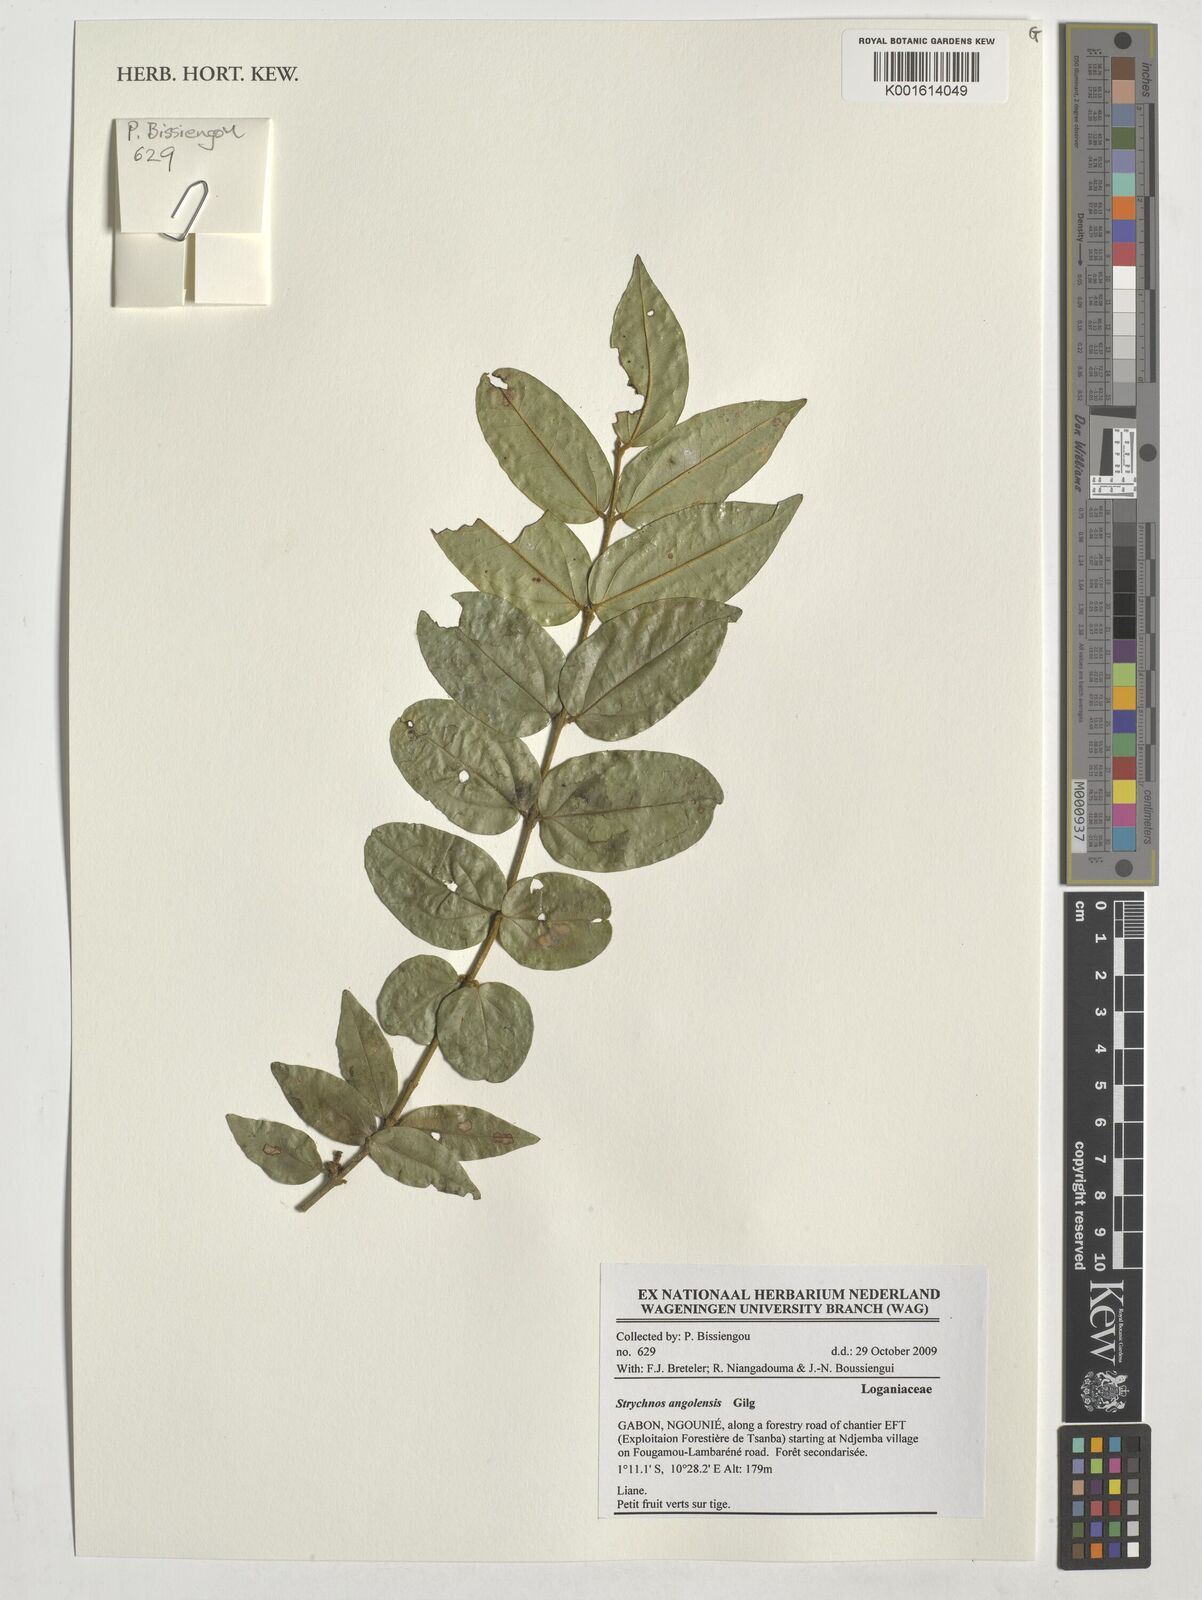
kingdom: Plantae
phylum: Tracheophyta
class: Magnoliopsida
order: Gentianales
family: Loganiaceae
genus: Strychnos
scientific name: Strychnos angolensis
